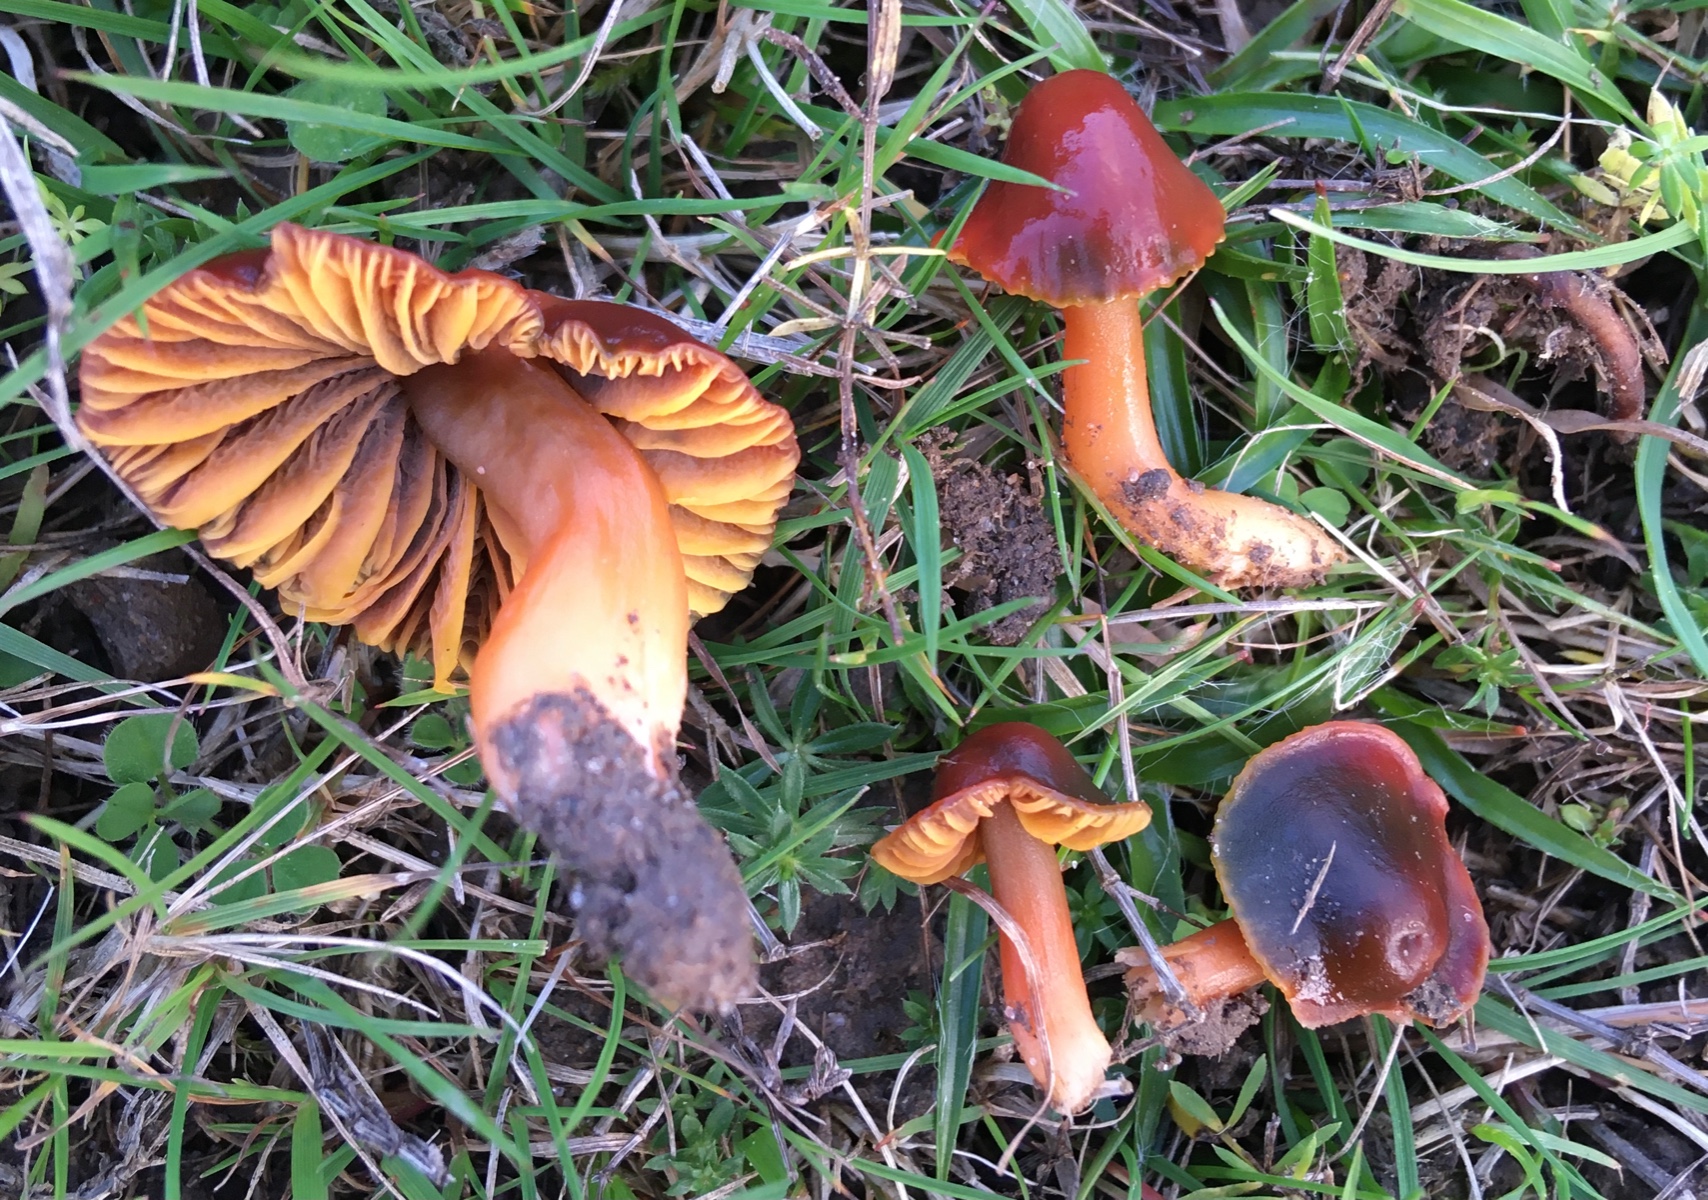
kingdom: Fungi
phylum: Basidiomycota
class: Agaricomycetes
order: Agaricales
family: Hygrophoraceae
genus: Gliophorus
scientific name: Gliophorus psittacinus
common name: Parrot wax-cap
